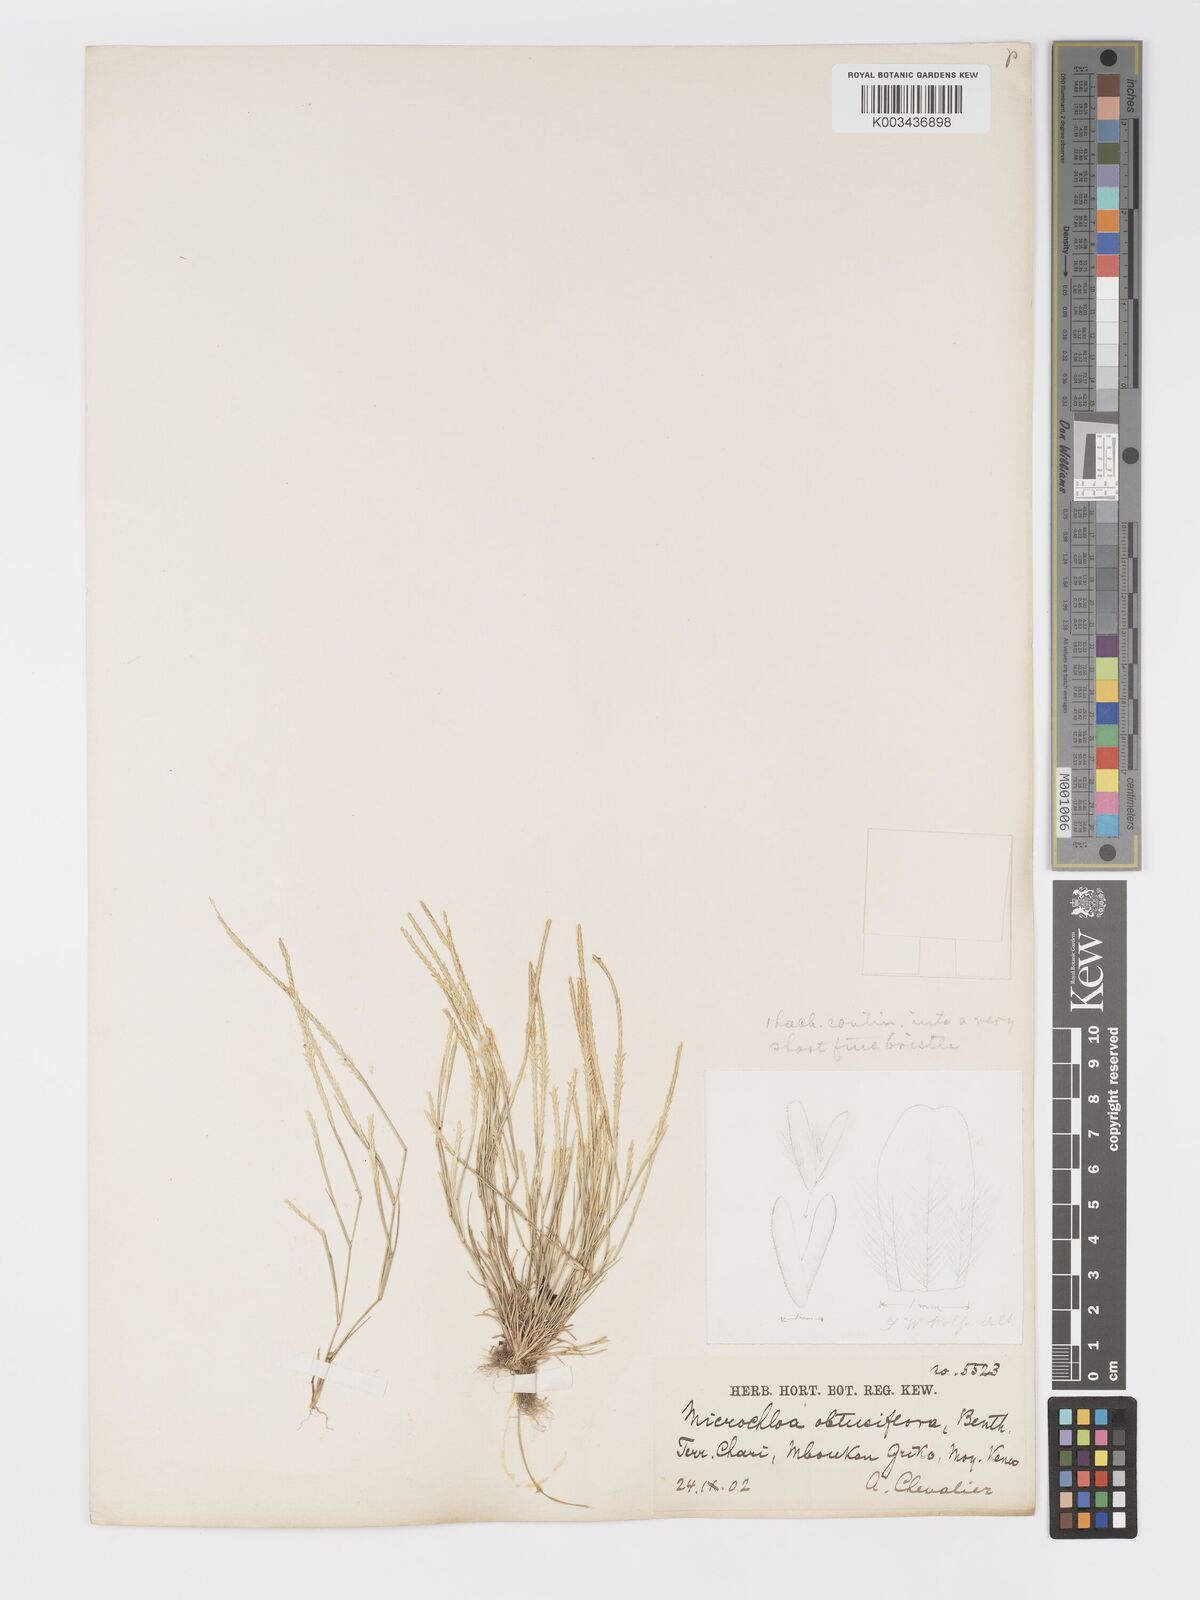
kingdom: Plantae
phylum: Tracheophyta
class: Liliopsida
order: Poales
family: Poaceae
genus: Micrachne
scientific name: Micrachne obtusiflora
